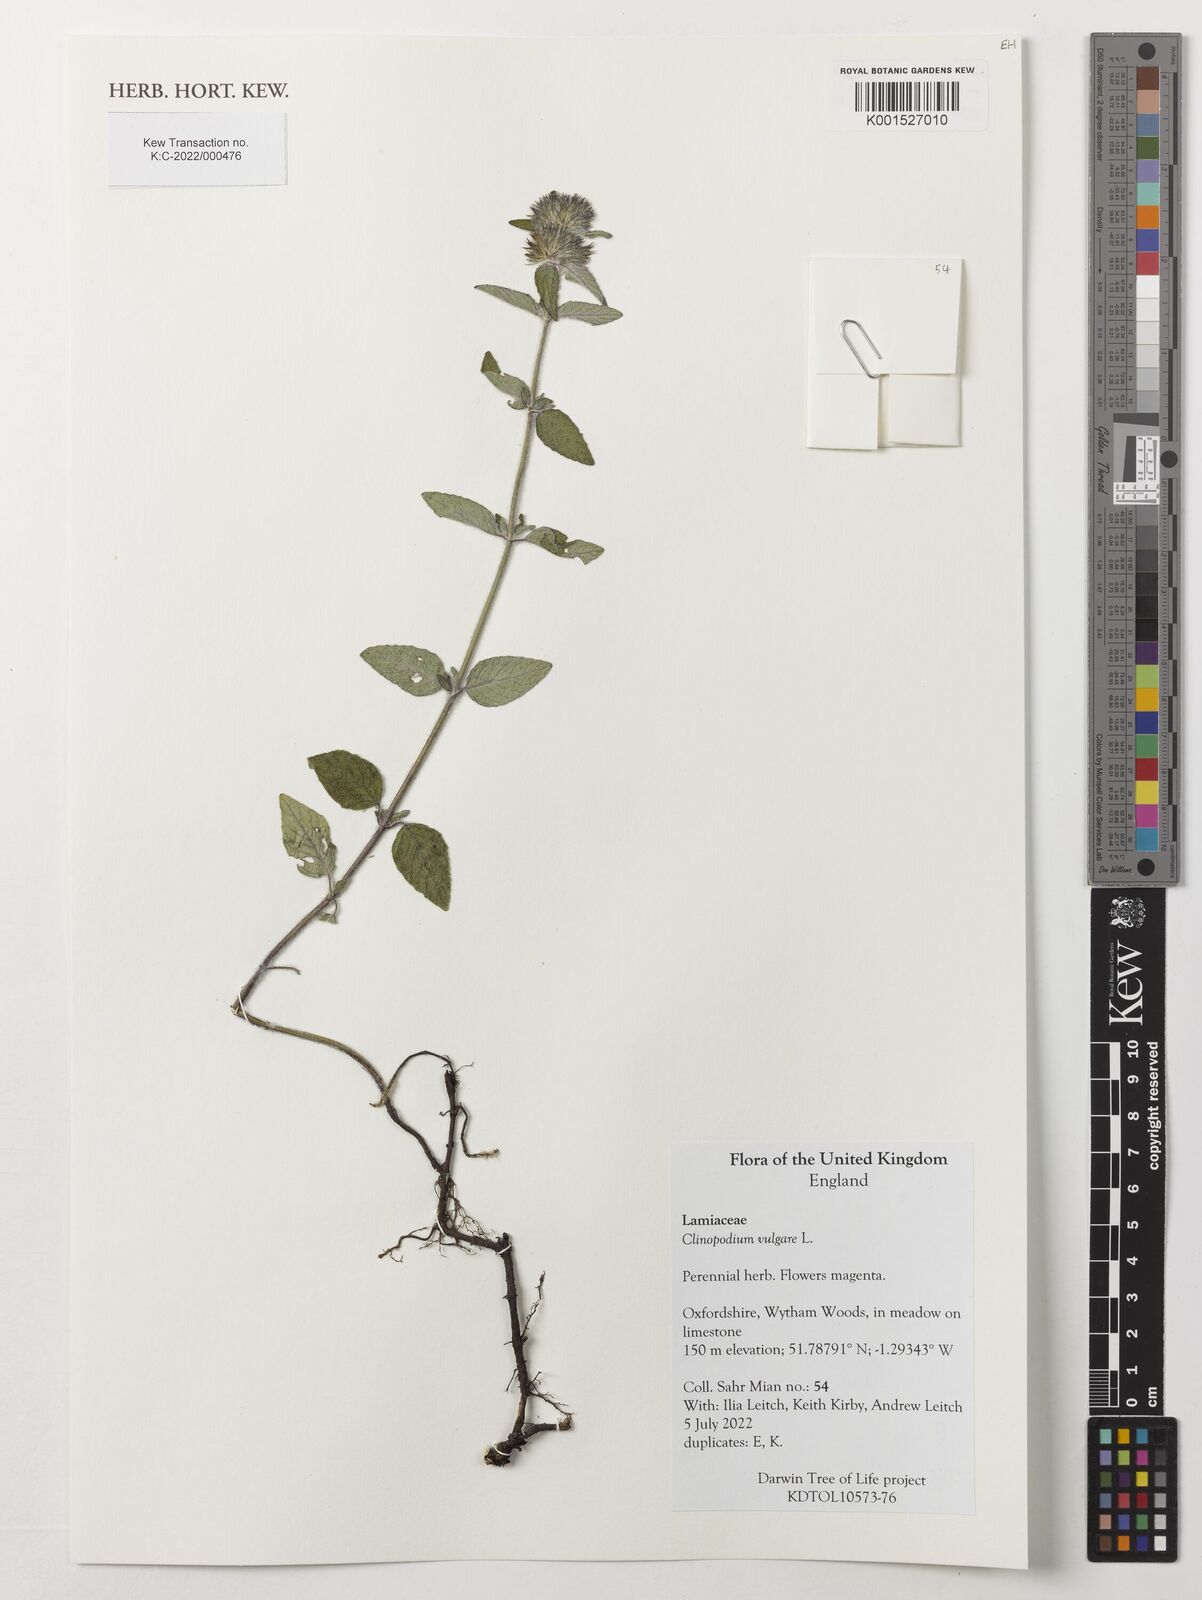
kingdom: Plantae
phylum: Tracheophyta
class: Magnoliopsida
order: Lamiales
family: Lamiaceae
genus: Clinopodium
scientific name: Clinopodium vulgare
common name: Wild basil
